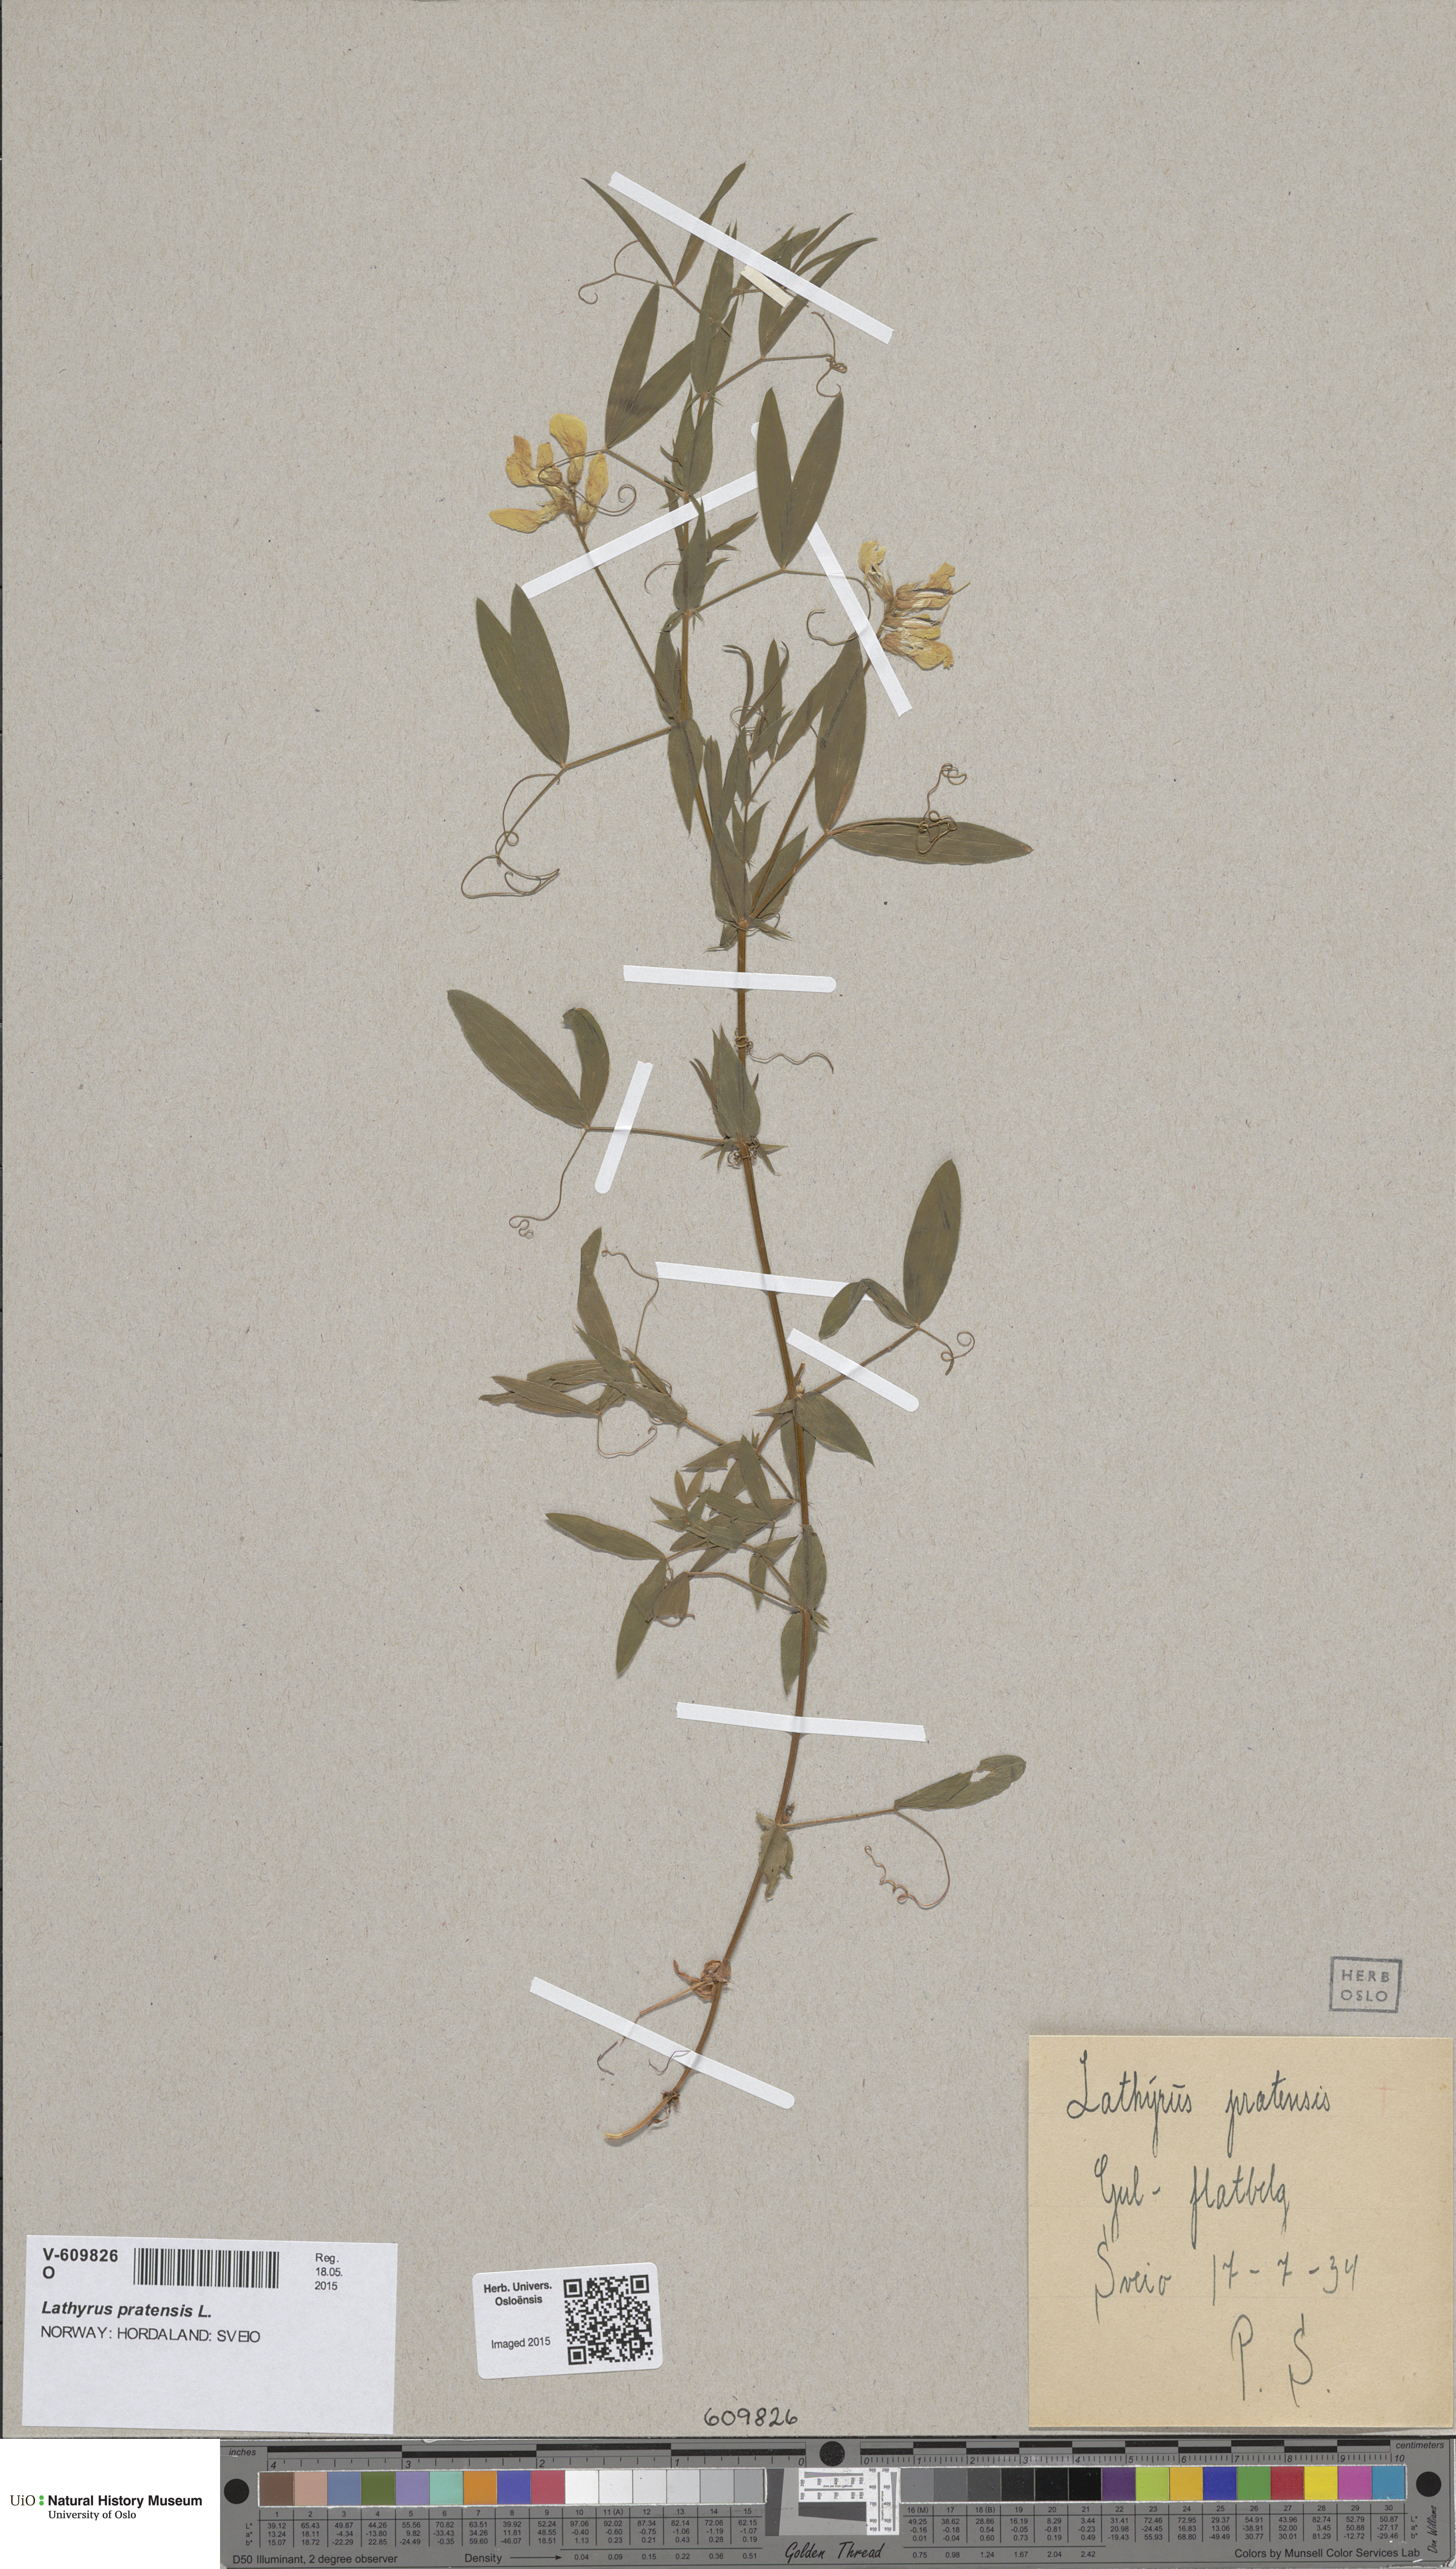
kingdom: Plantae
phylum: Tracheophyta
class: Magnoliopsida
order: Fabales
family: Fabaceae
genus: Lathyrus
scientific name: Lathyrus pratensis
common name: Meadow vetchling
